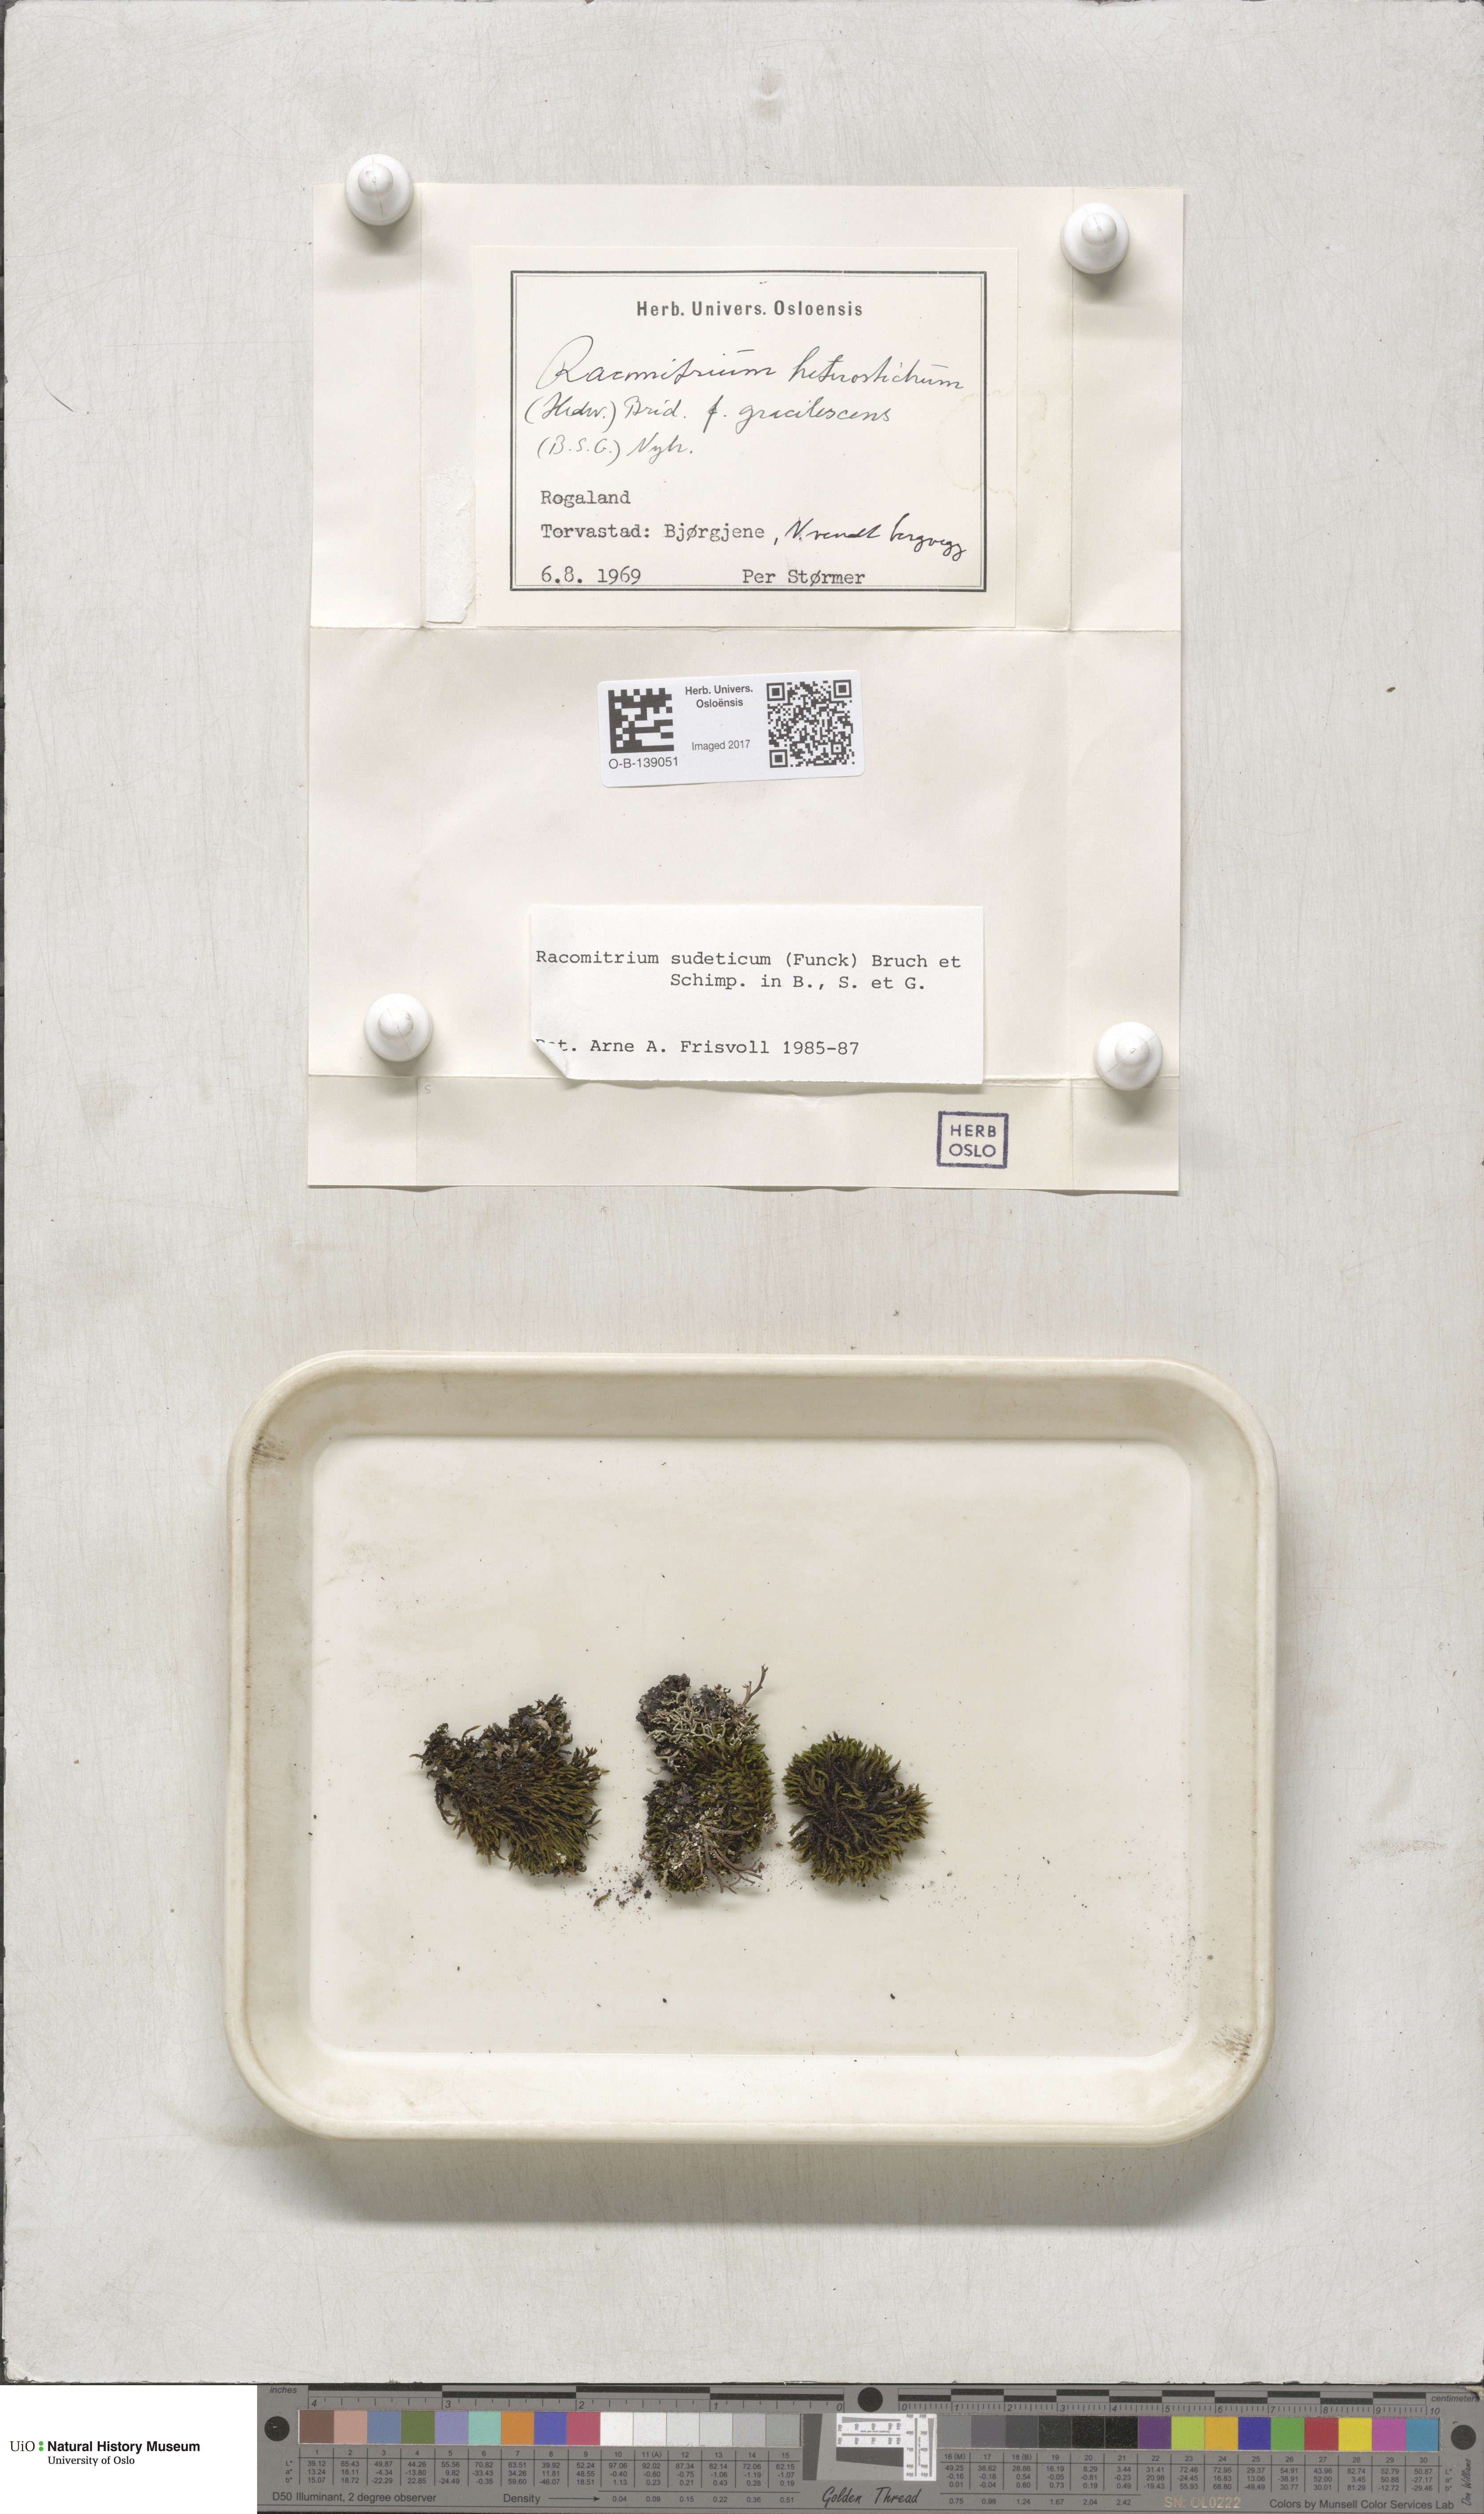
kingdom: Plantae
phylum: Bryophyta
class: Bryopsida
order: Grimmiales
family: Grimmiaceae
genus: Bucklandiella
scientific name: Bucklandiella sudetica
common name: Slender fringe-moss
